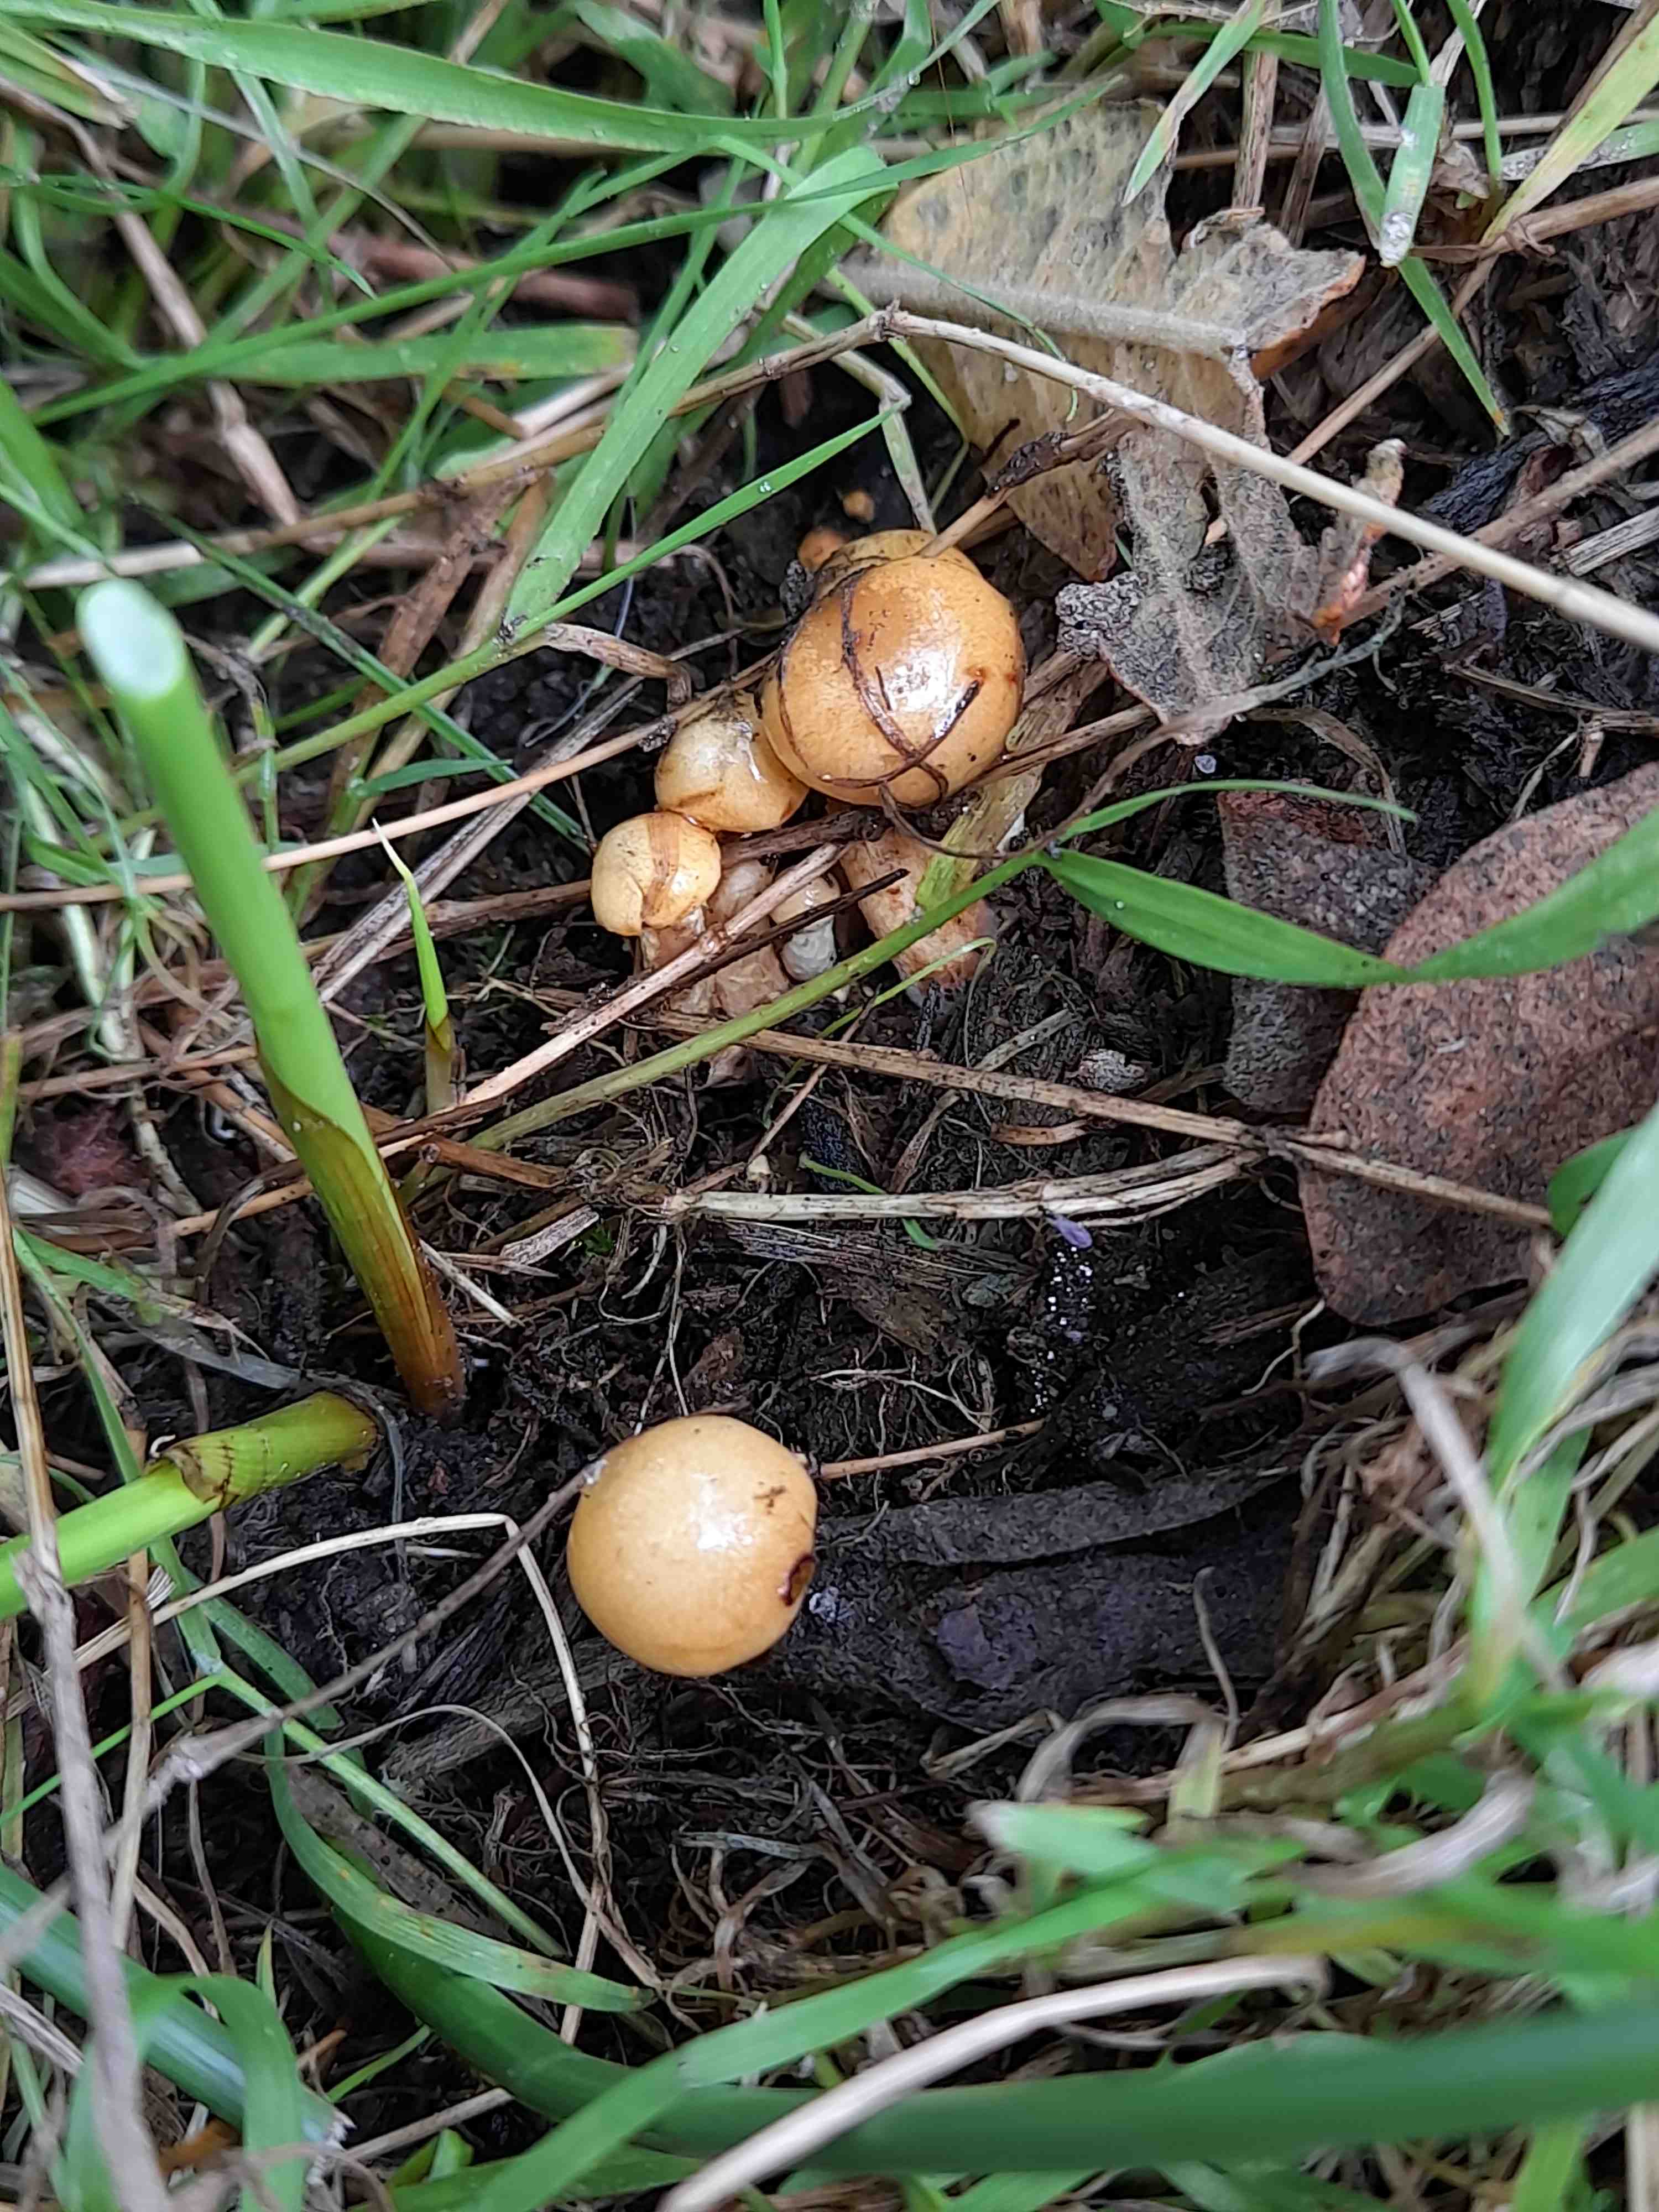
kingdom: Fungi
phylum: Basidiomycota
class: Agaricomycetes
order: Agaricales
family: Strophariaceae
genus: Pholiota
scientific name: Pholiota conissans
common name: pile-skælhat
